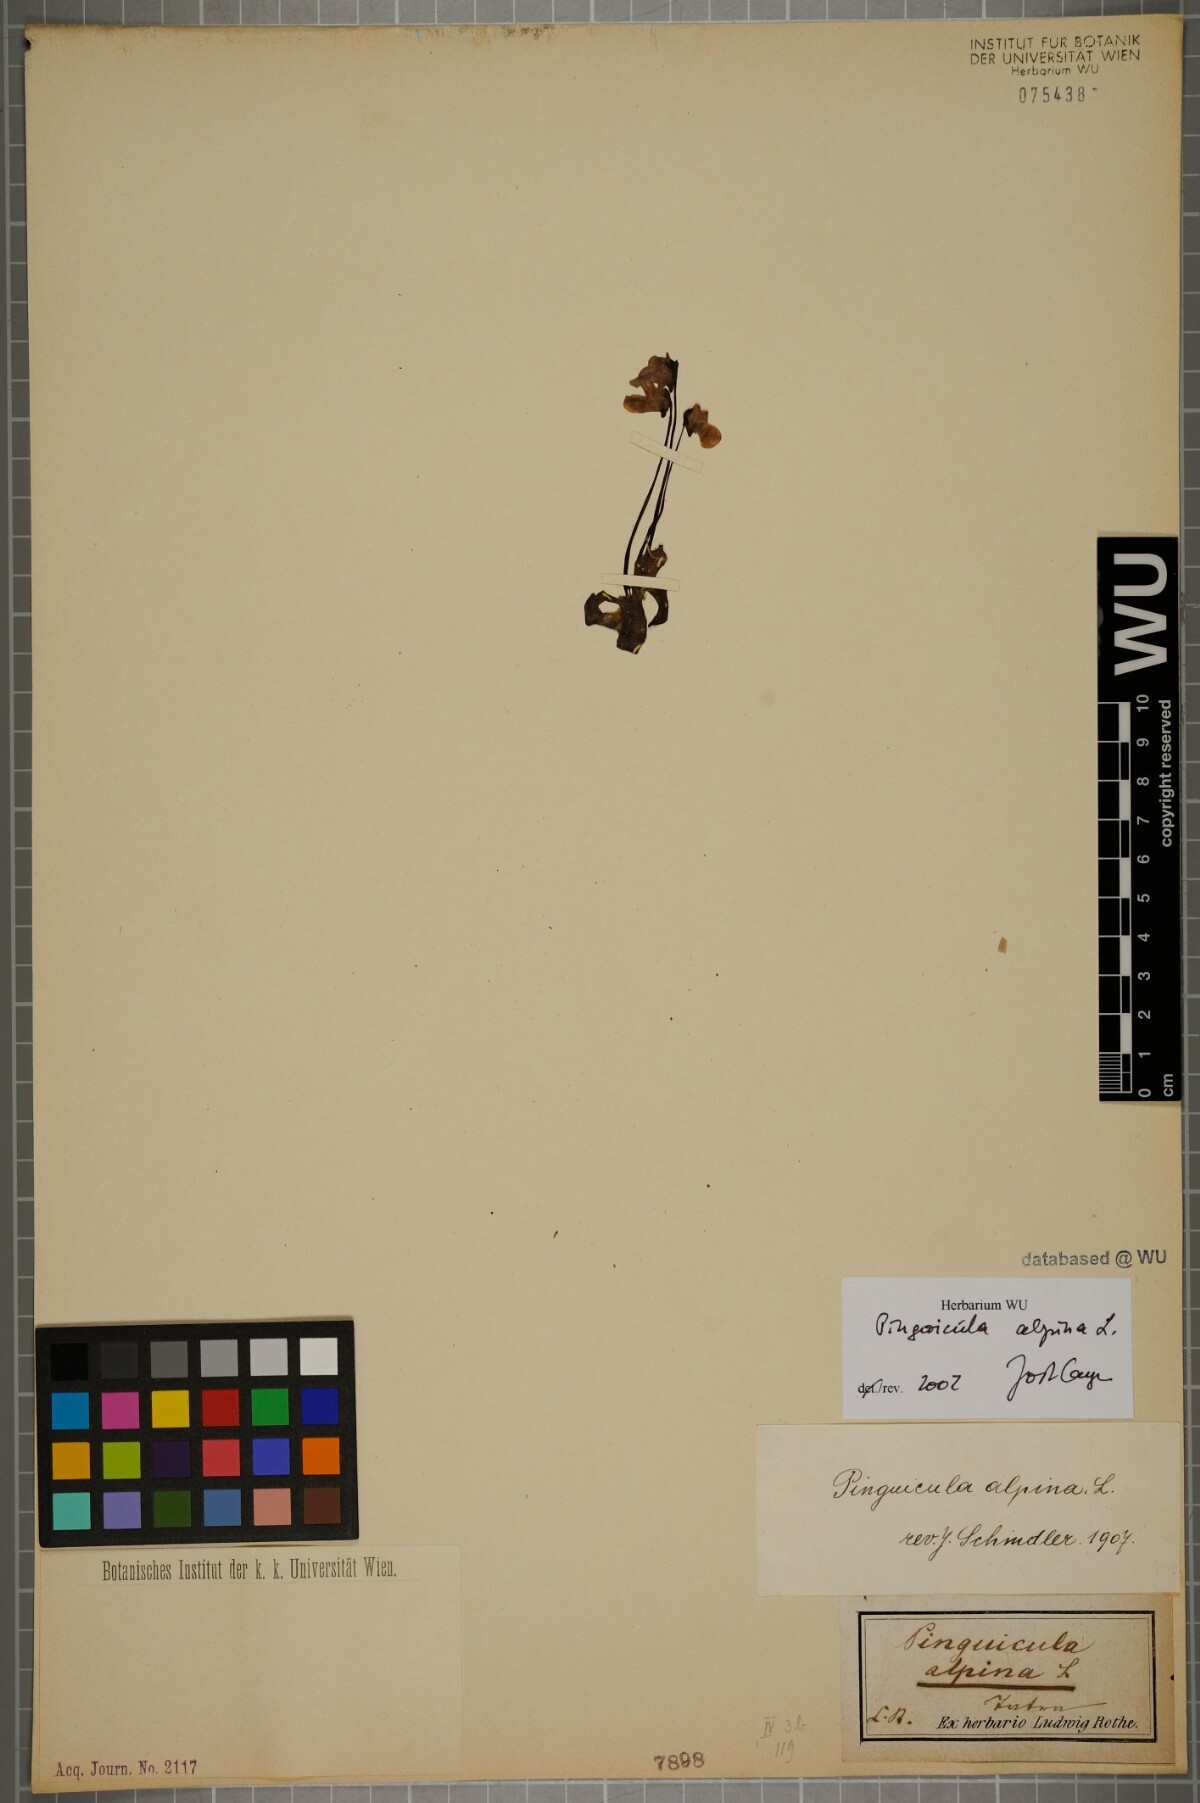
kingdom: Plantae
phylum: Tracheophyta
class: Magnoliopsida
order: Lamiales
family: Lentibulariaceae
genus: Pinguicula
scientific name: Pinguicula alpina
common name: Alpine butterwort
